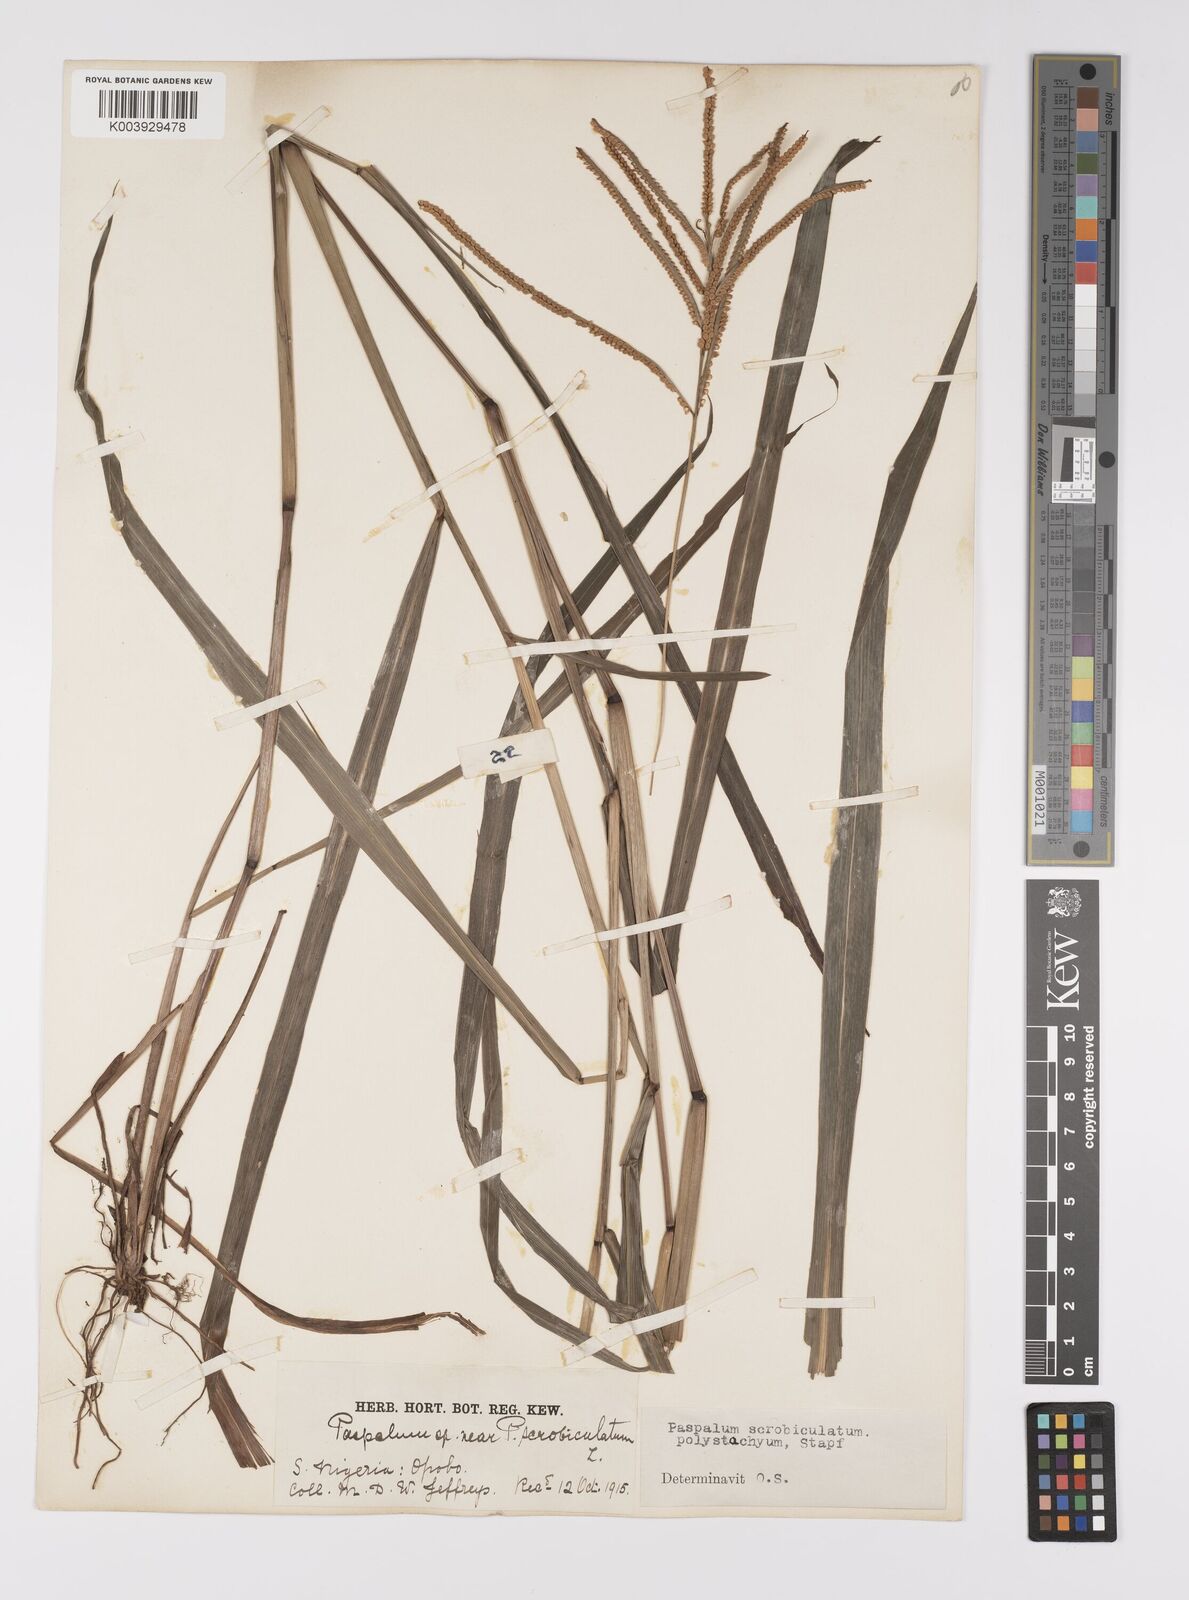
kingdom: Plantae
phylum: Tracheophyta
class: Liliopsida
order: Poales
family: Poaceae
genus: Paspalum
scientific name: Paspalum scrobiculatum
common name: Kodo millet
